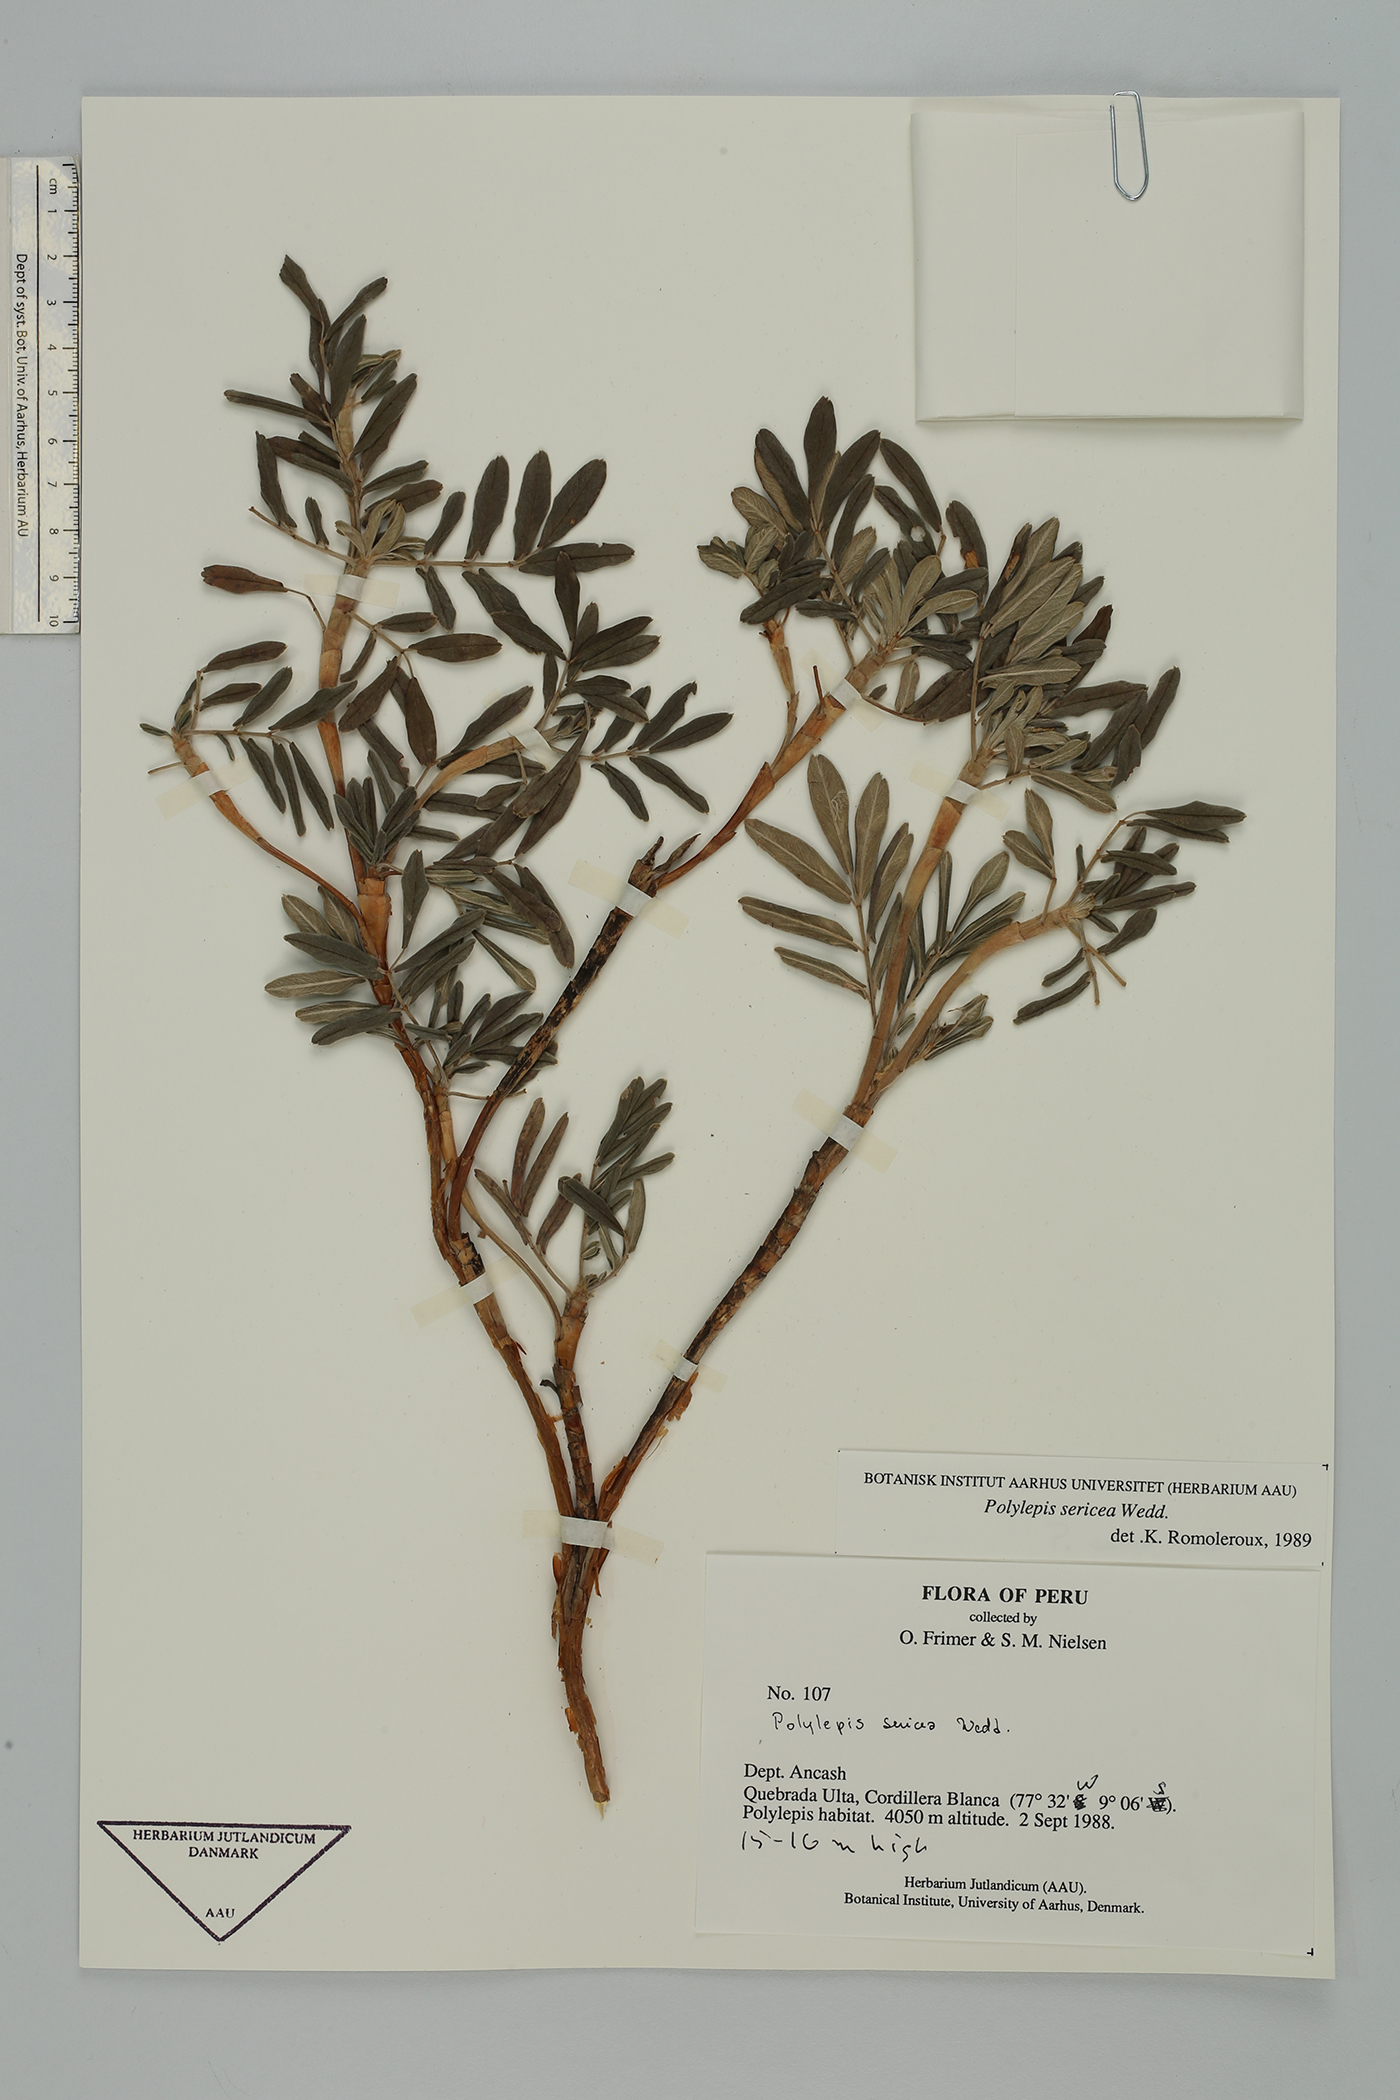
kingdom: Plantae
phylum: Tracheophyta
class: Magnoliopsida
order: Rosales
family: Rosaceae
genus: Polylepis
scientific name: Polylepis sericea
